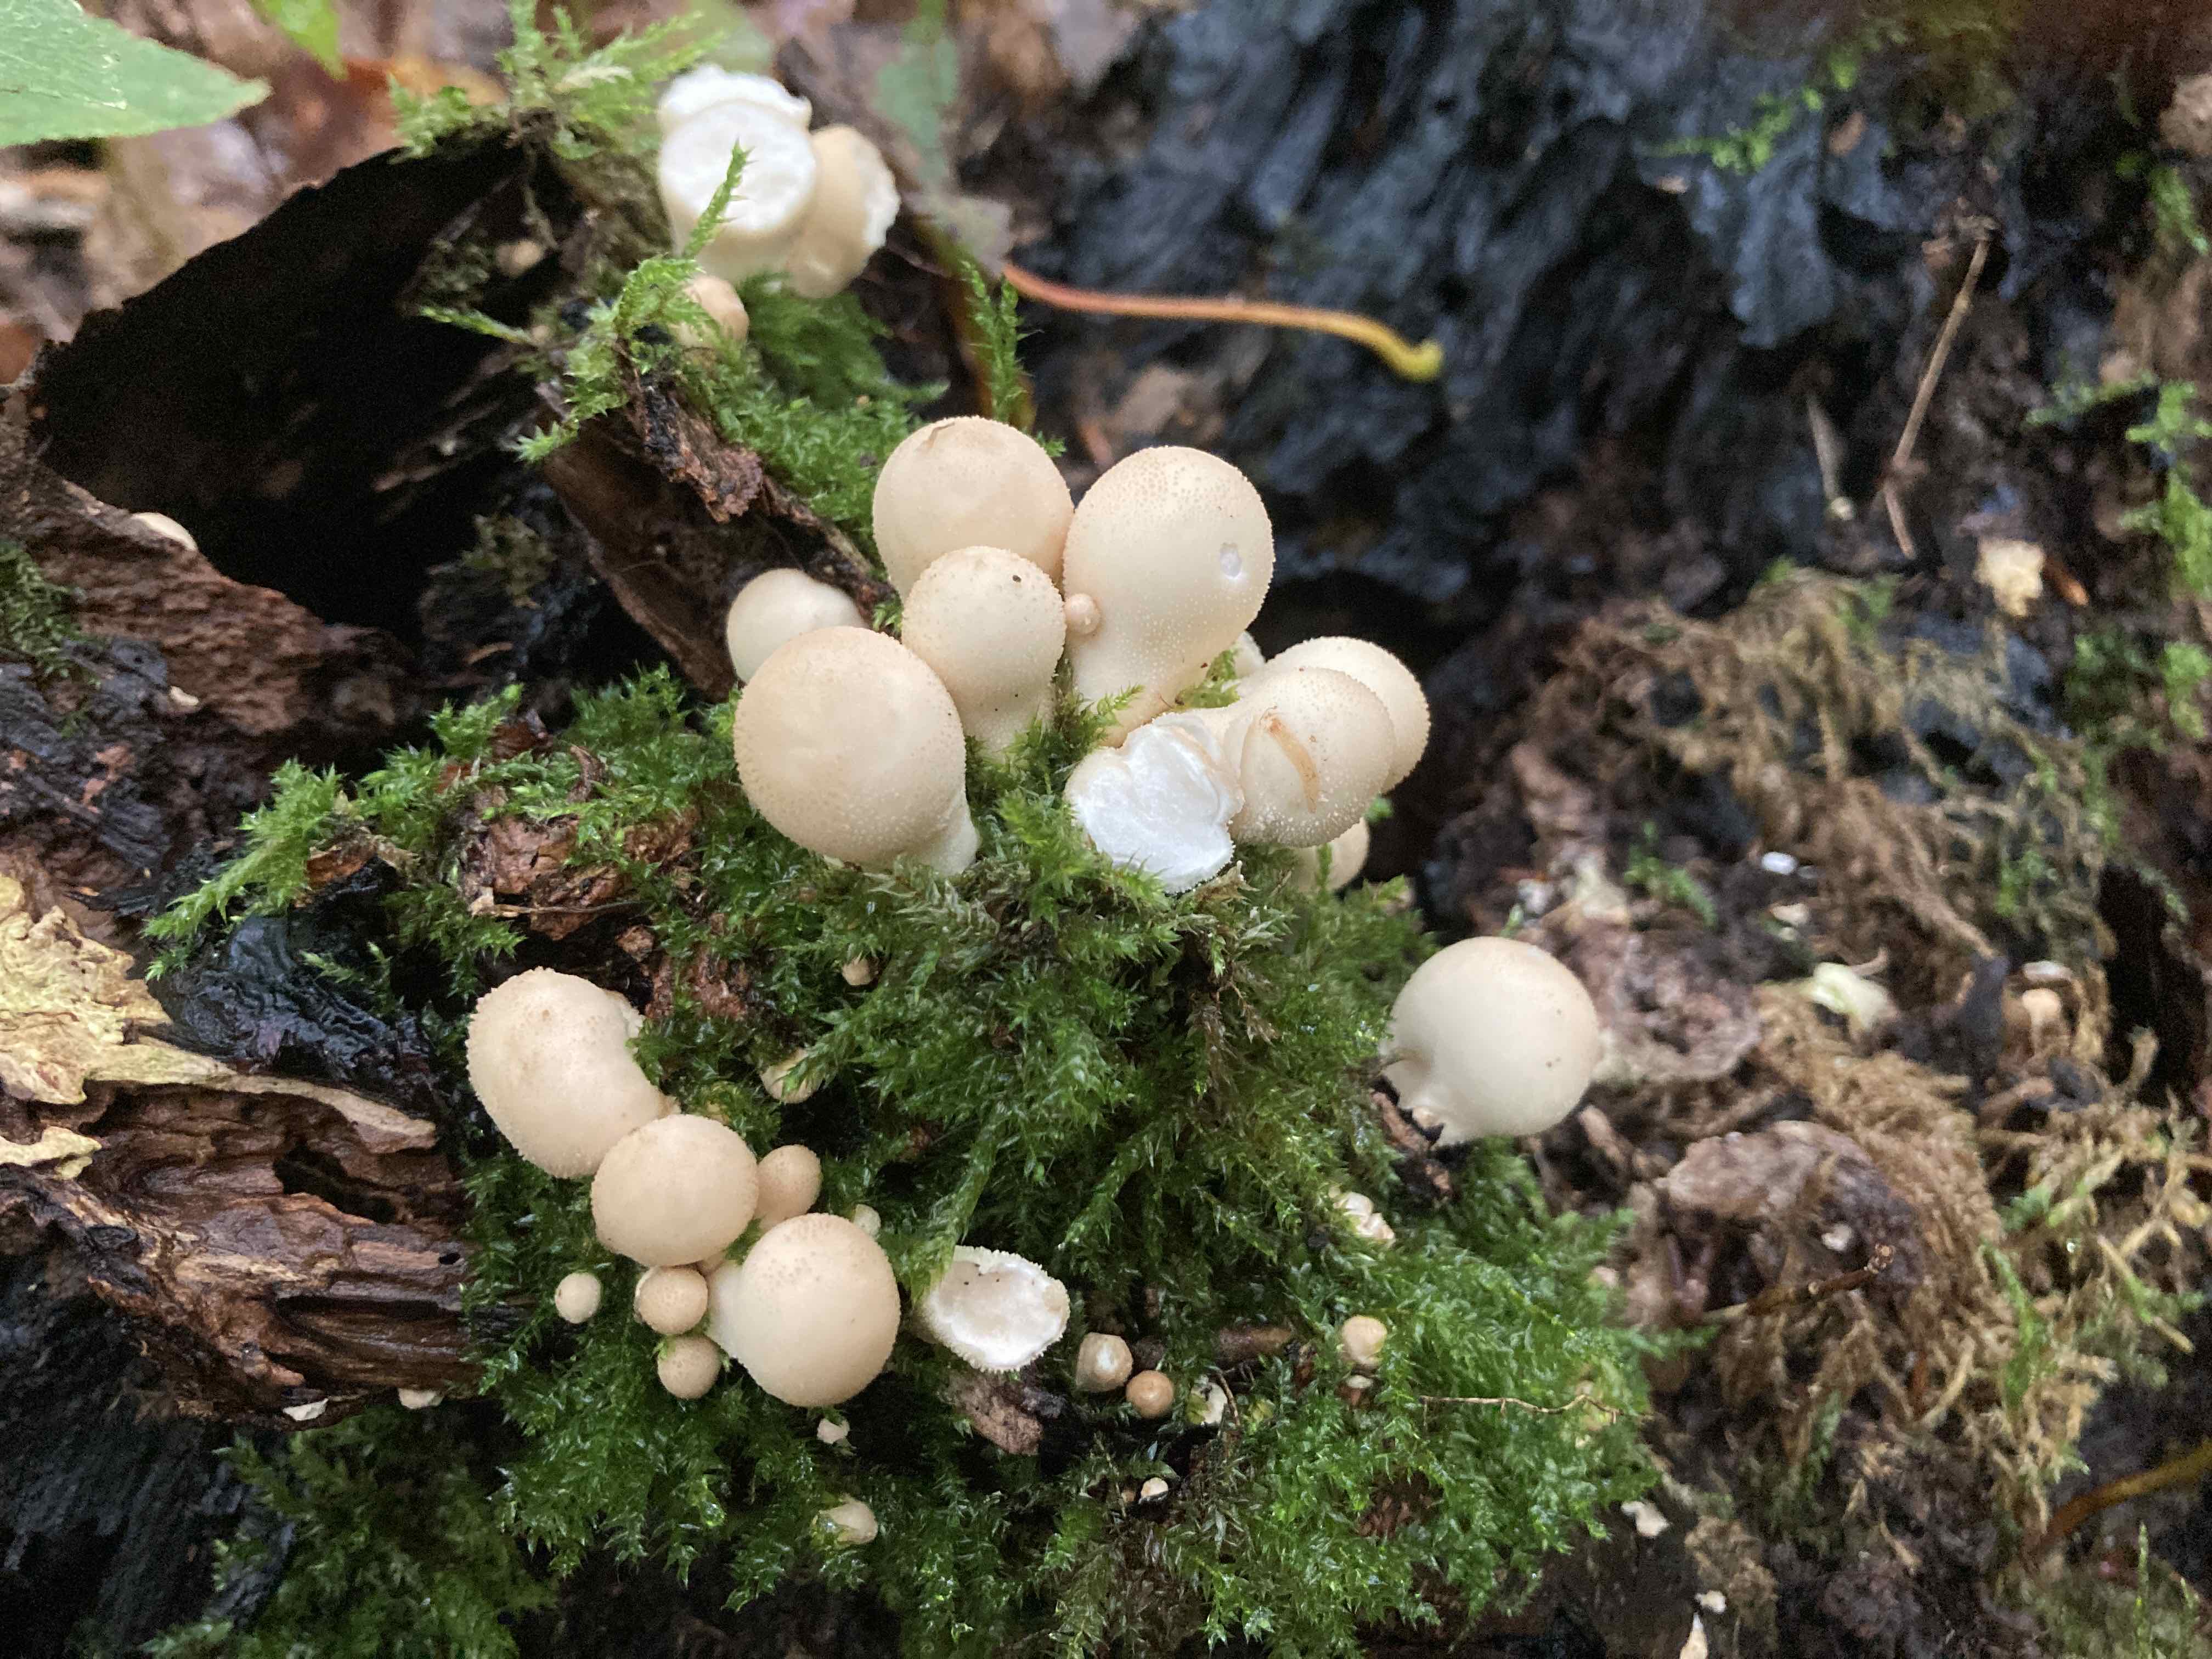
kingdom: Fungi
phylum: Basidiomycota
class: Agaricomycetes
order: Agaricales
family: Lycoperdaceae
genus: Apioperdon
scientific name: Apioperdon pyriforme
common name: pære-støvbold
